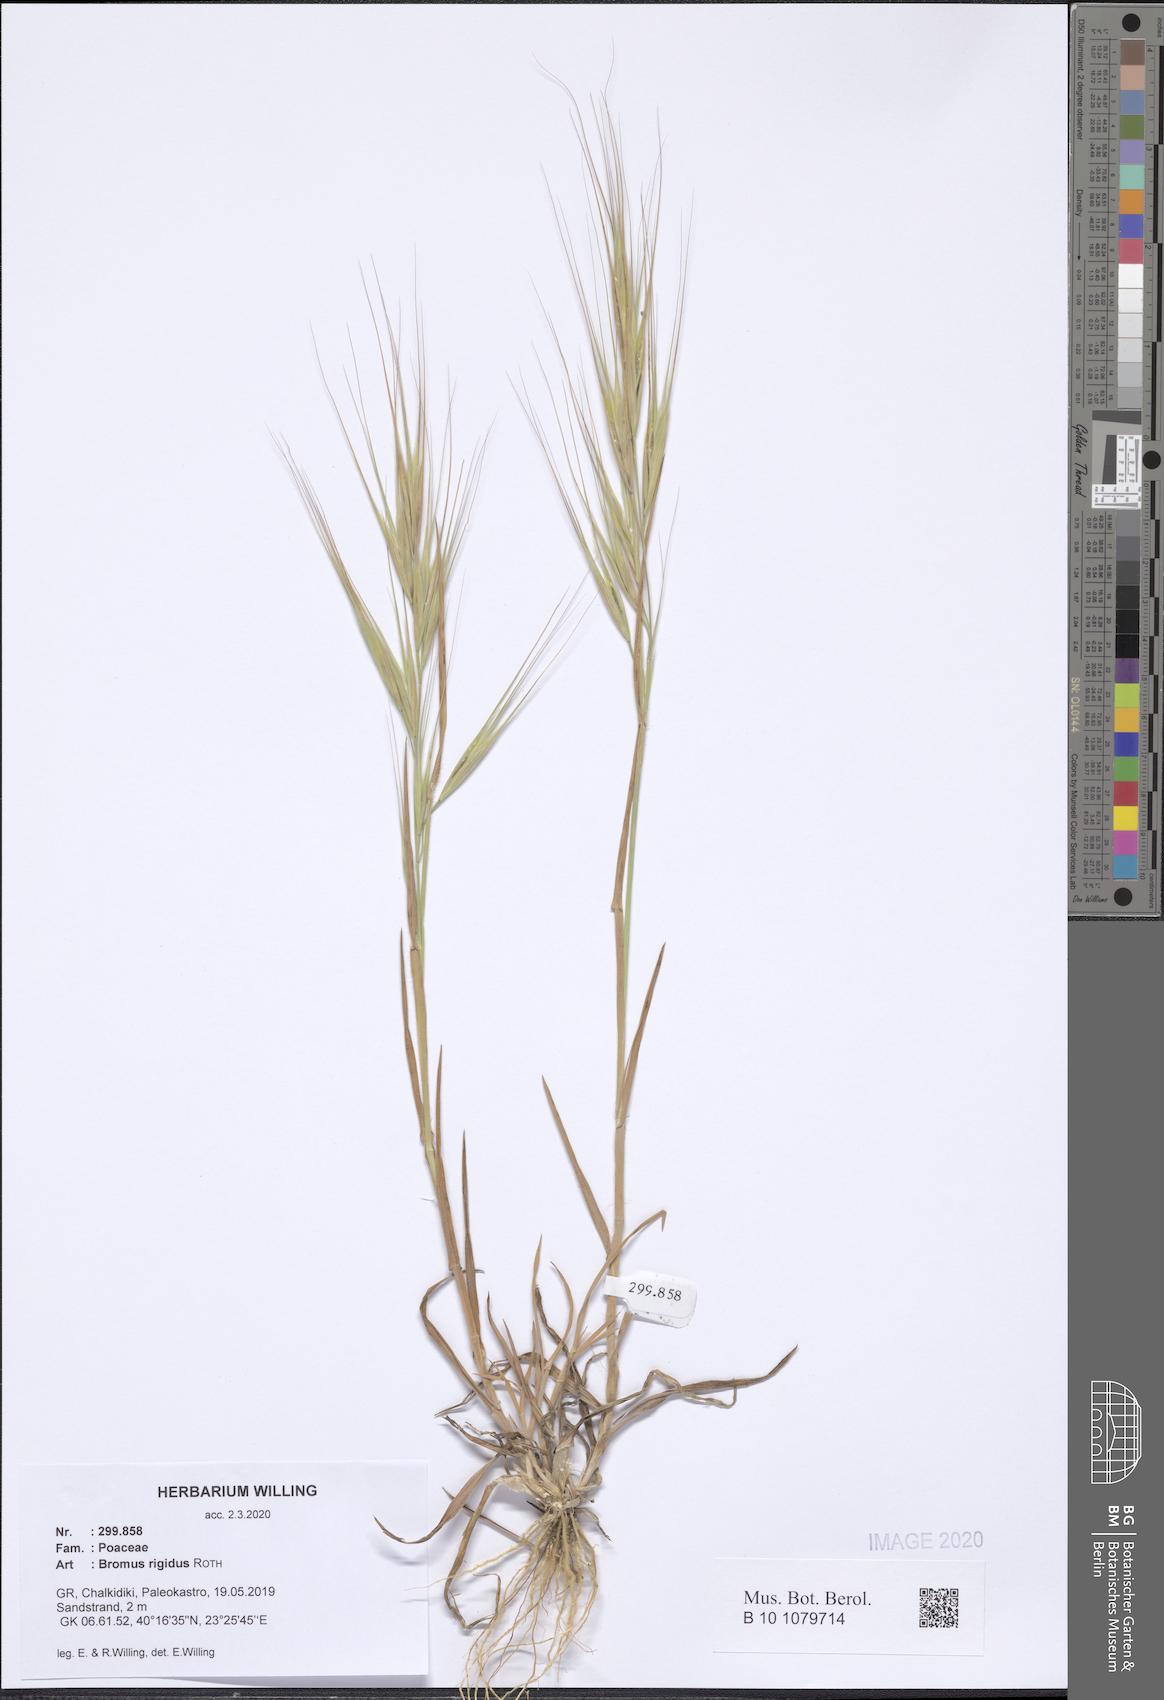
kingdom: Plantae
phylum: Tracheophyta
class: Liliopsida
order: Poales
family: Poaceae
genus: Bromus
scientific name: Bromus rigidus
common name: Ripgut brome
